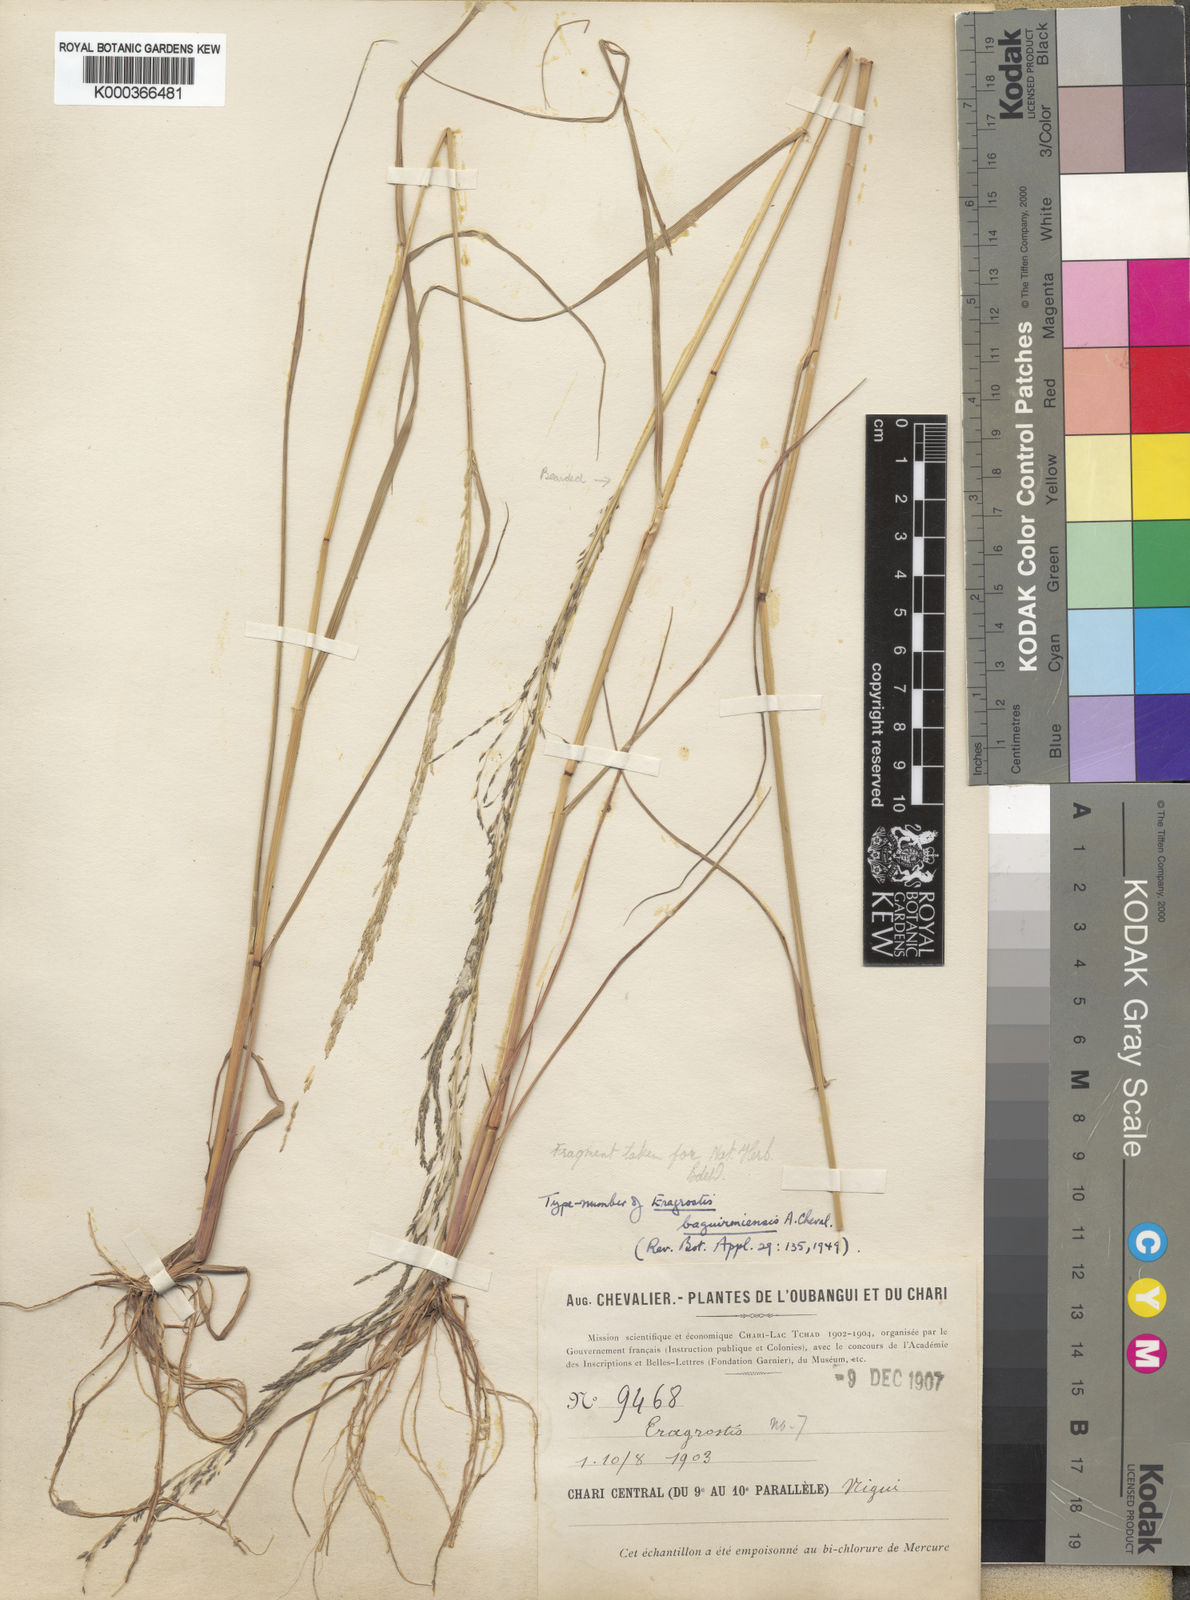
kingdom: Plantae
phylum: Tracheophyta
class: Liliopsida
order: Poales
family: Poaceae
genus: Eragrostis
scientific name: Eragrostis pilosa
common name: Indian lovegrass
